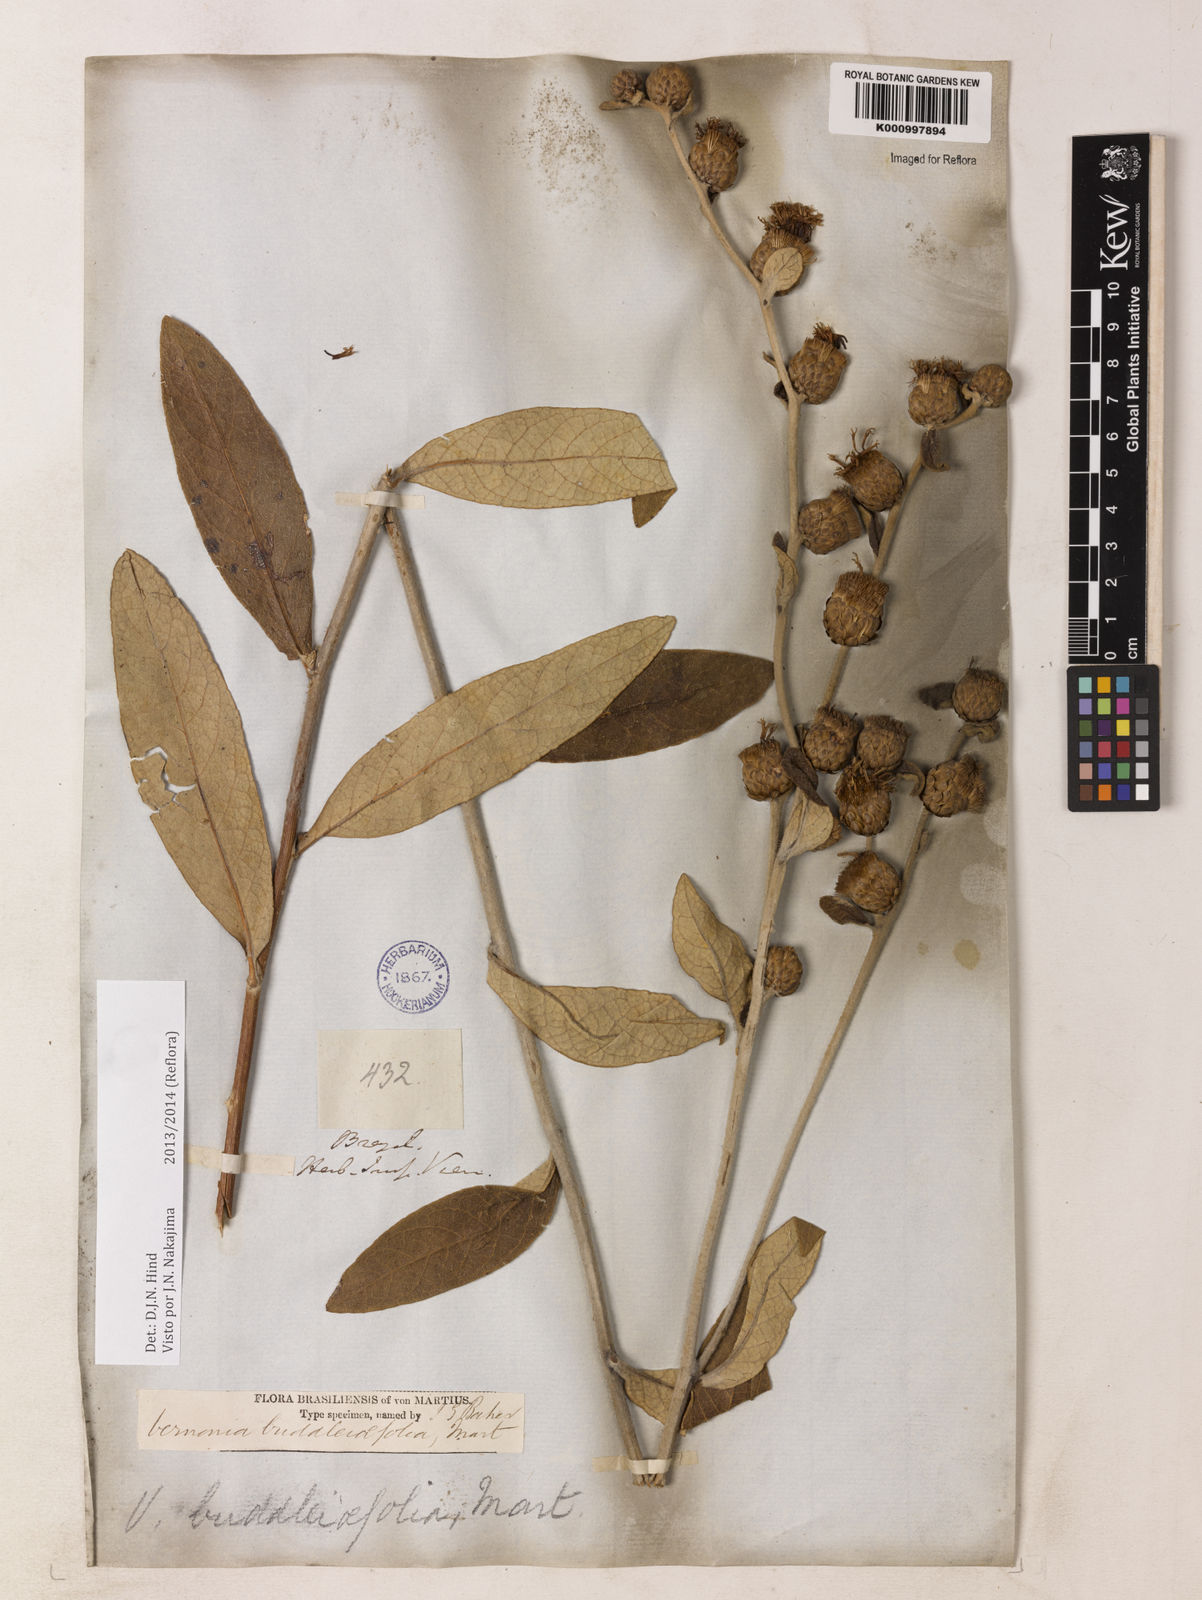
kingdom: Plantae
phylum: Tracheophyta
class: Magnoliopsida
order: Asterales
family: Asteraceae
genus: Lessingianthus
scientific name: Lessingianthus buddlejifolius
